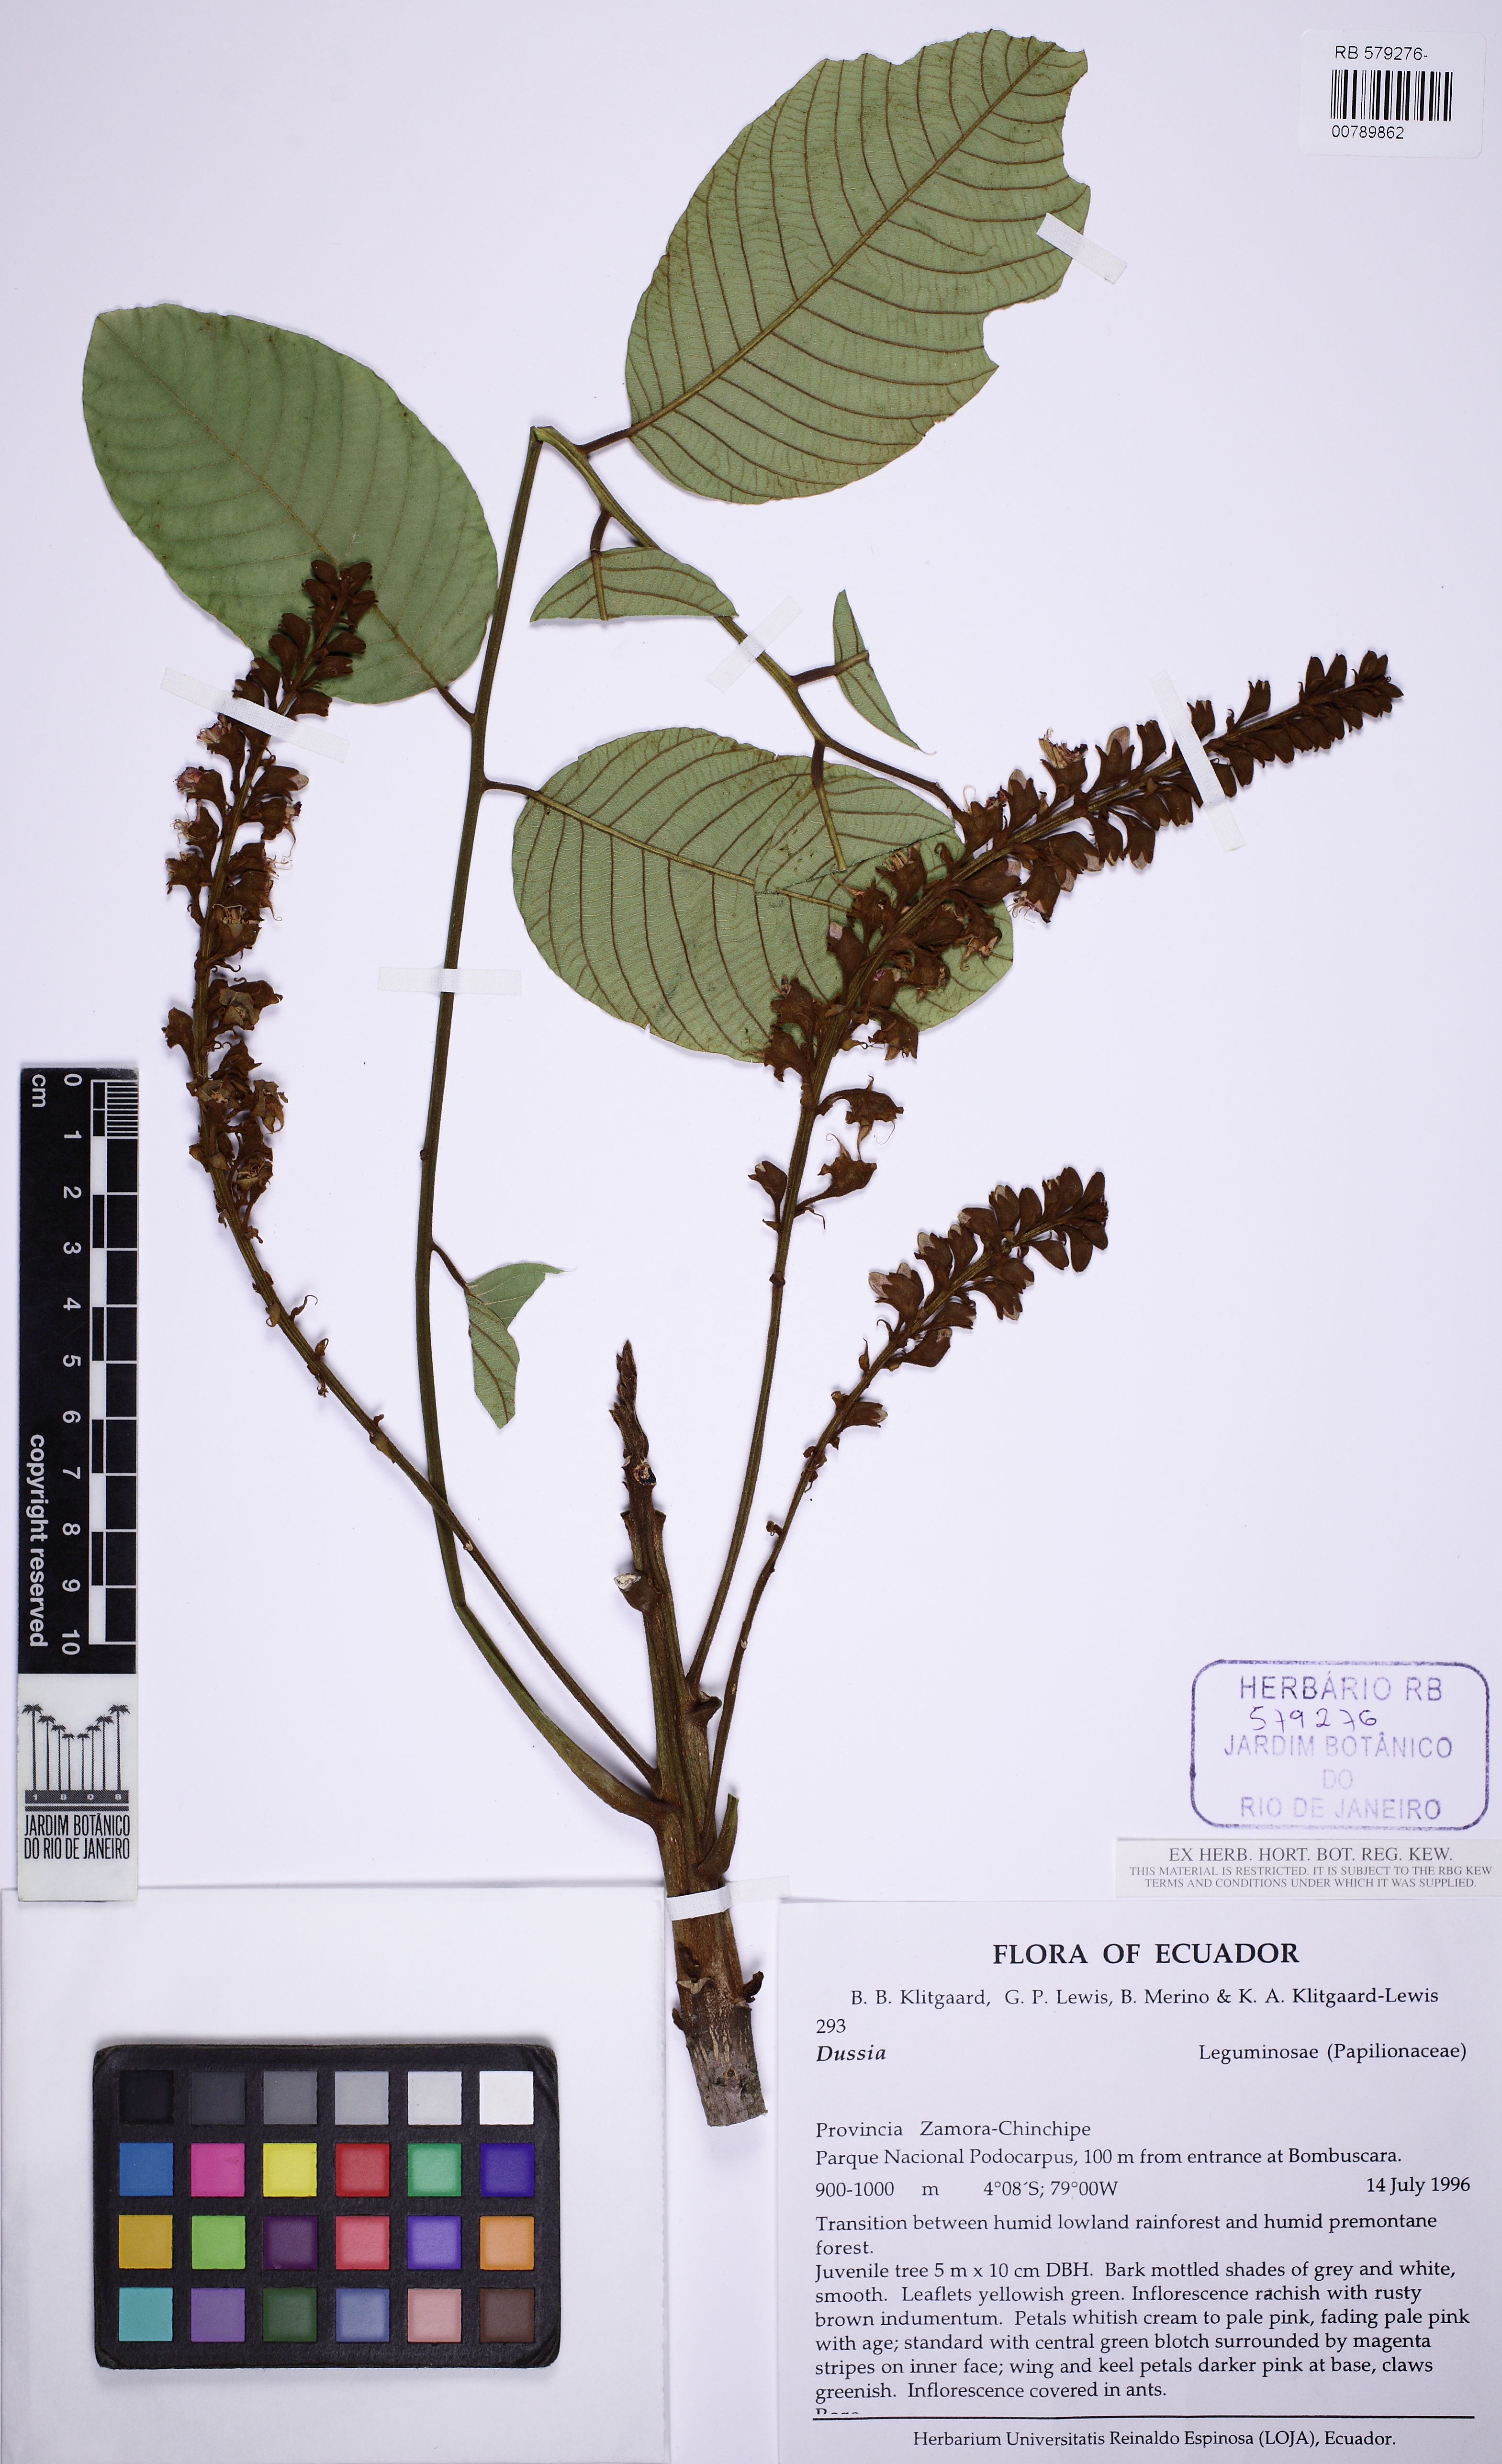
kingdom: Plantae
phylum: Tracheophyta
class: Magnoliopsida
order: Fabales
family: Fabaceae
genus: Dussia
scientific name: Dussia
